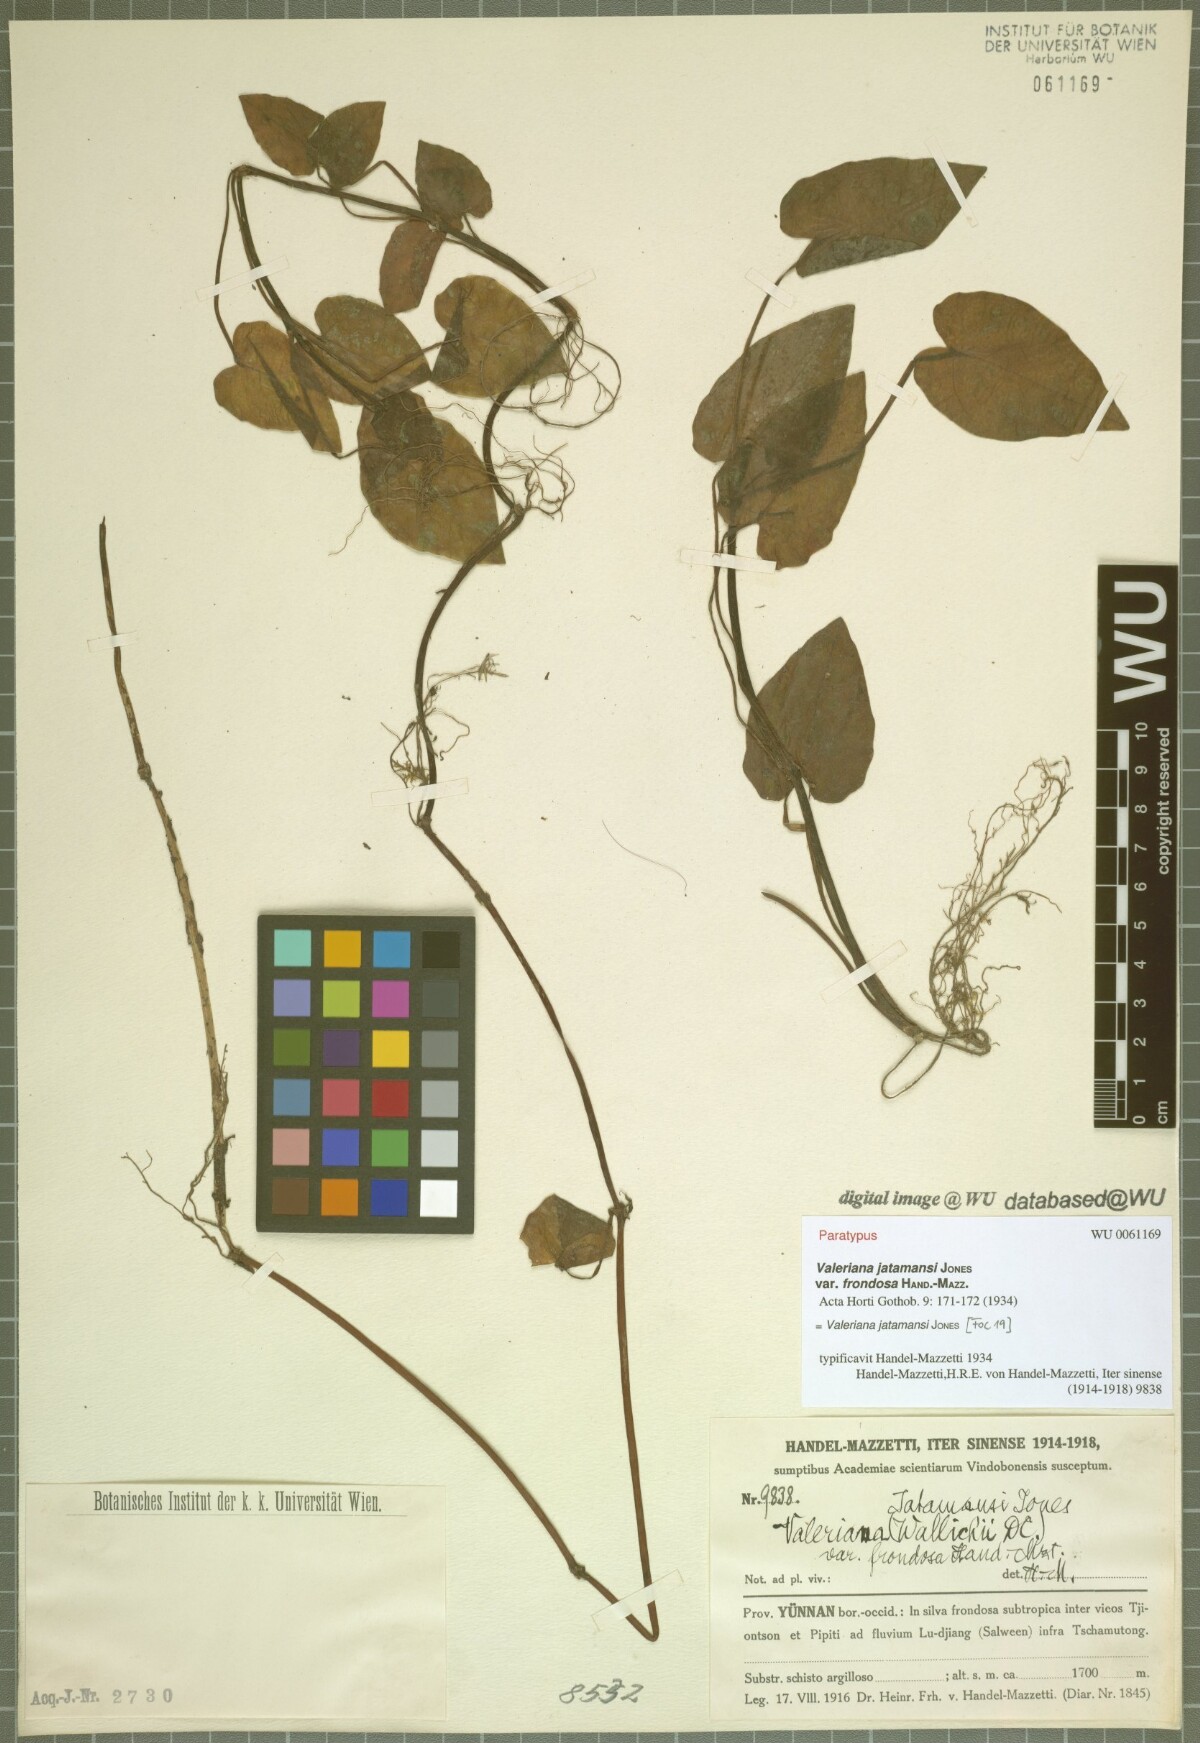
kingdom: Plantae
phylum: Tracheophyta
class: Magnoliopsida
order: Dipsacales
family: Caprifoliaceae
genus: Valeriana
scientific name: Valeriana jatamansi
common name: Indian valerian
